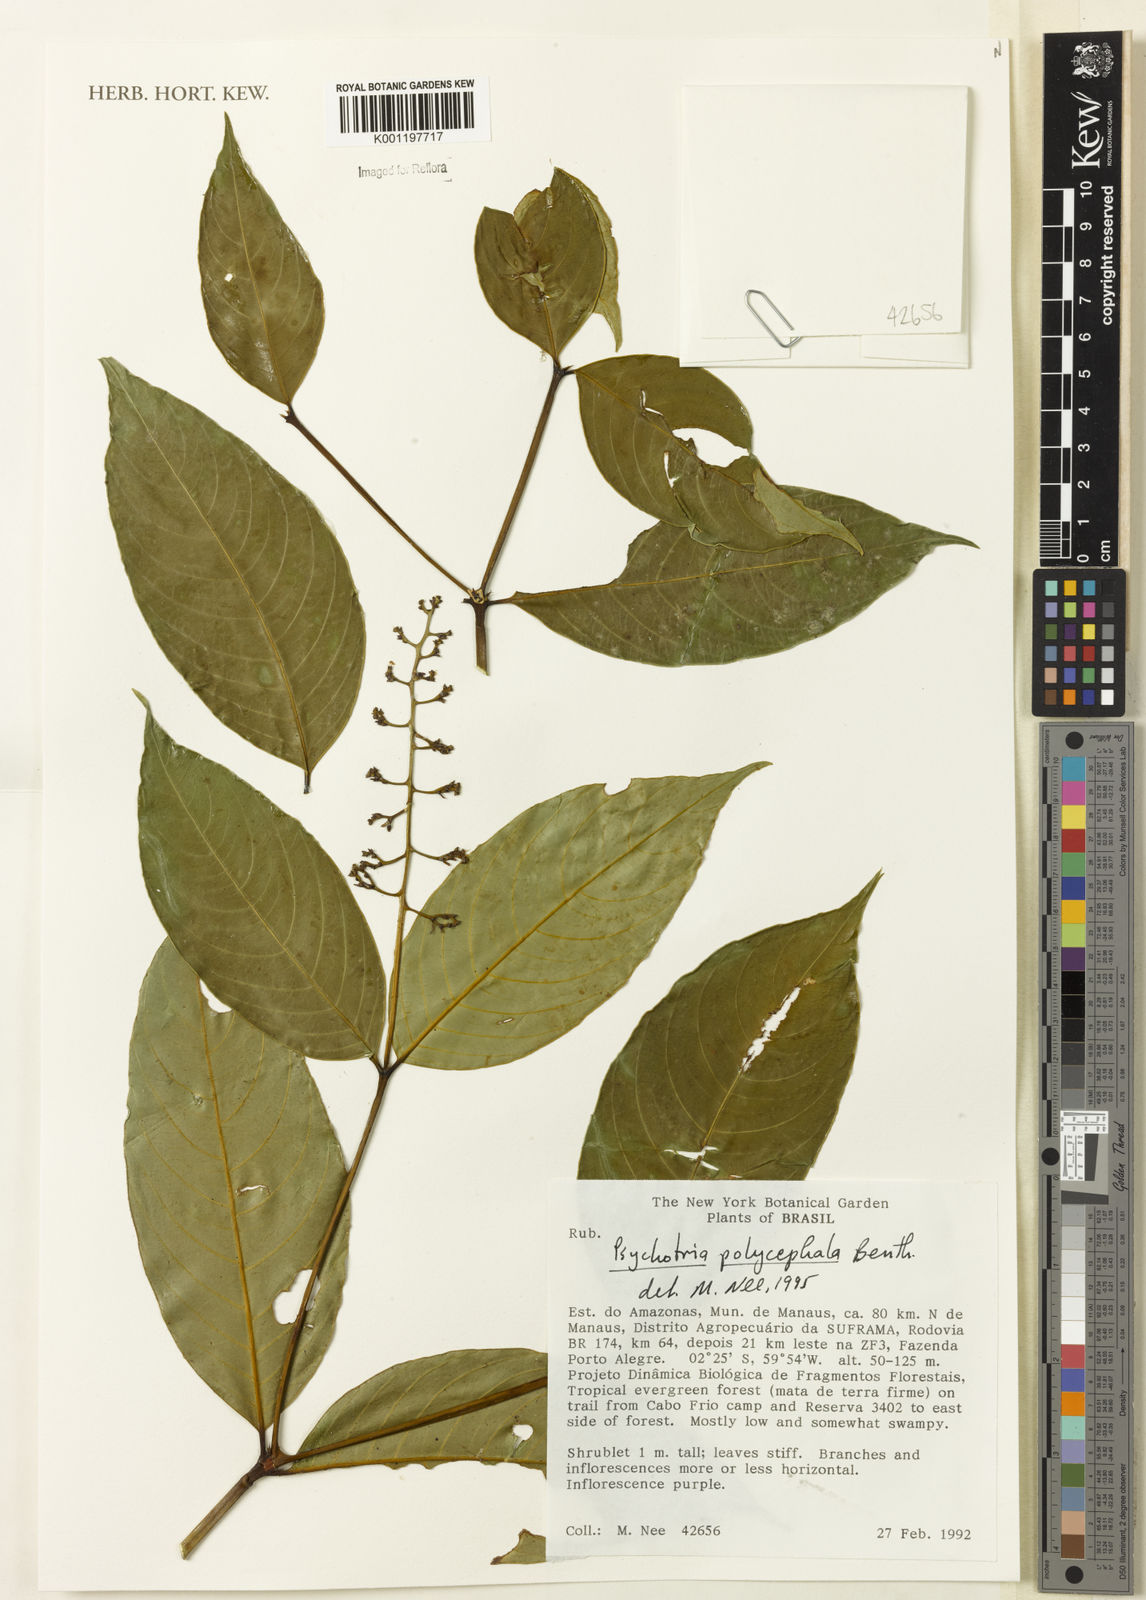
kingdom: Plantae
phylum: Tracheophyta
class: Magnoliopsida
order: Gentianales
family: Rubiaceae
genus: Palicourea
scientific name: Palicourea polycephala
